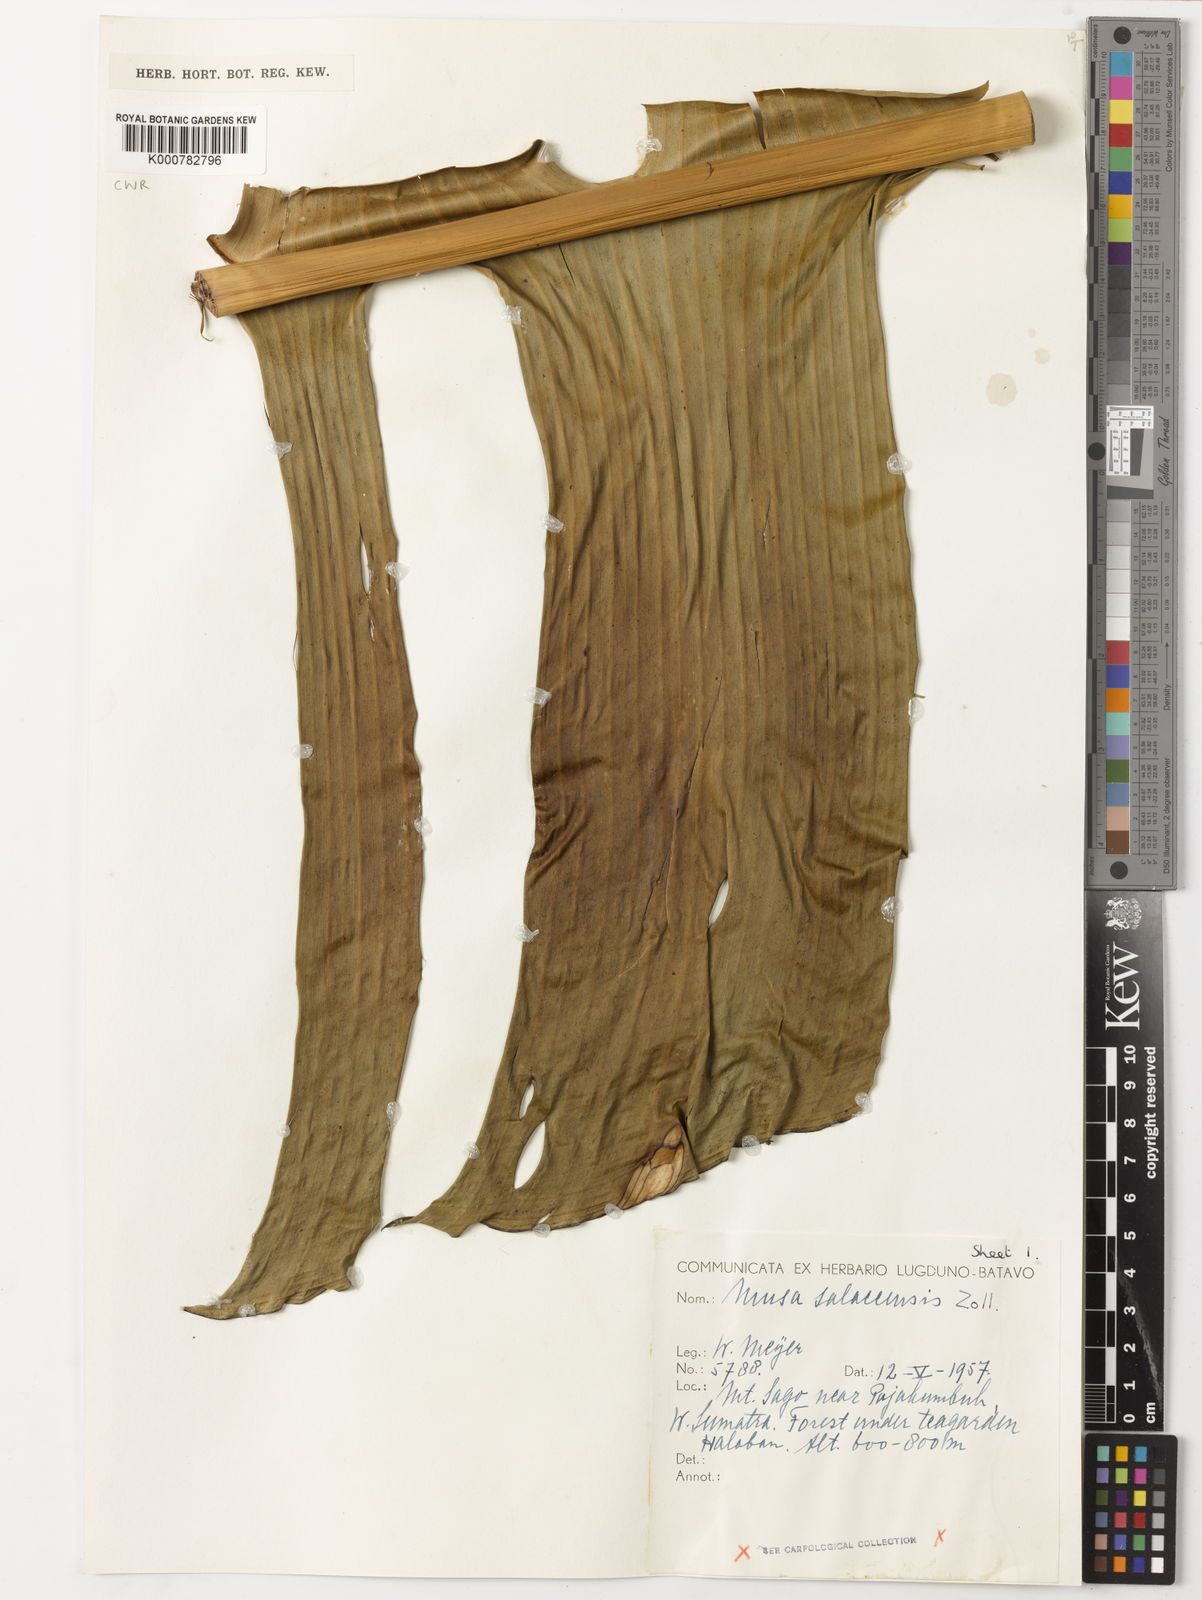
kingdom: Plantae
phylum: Tracheophyta
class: Liliopsida
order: Zingiberales
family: Musaceae
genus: Musa
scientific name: Musa
